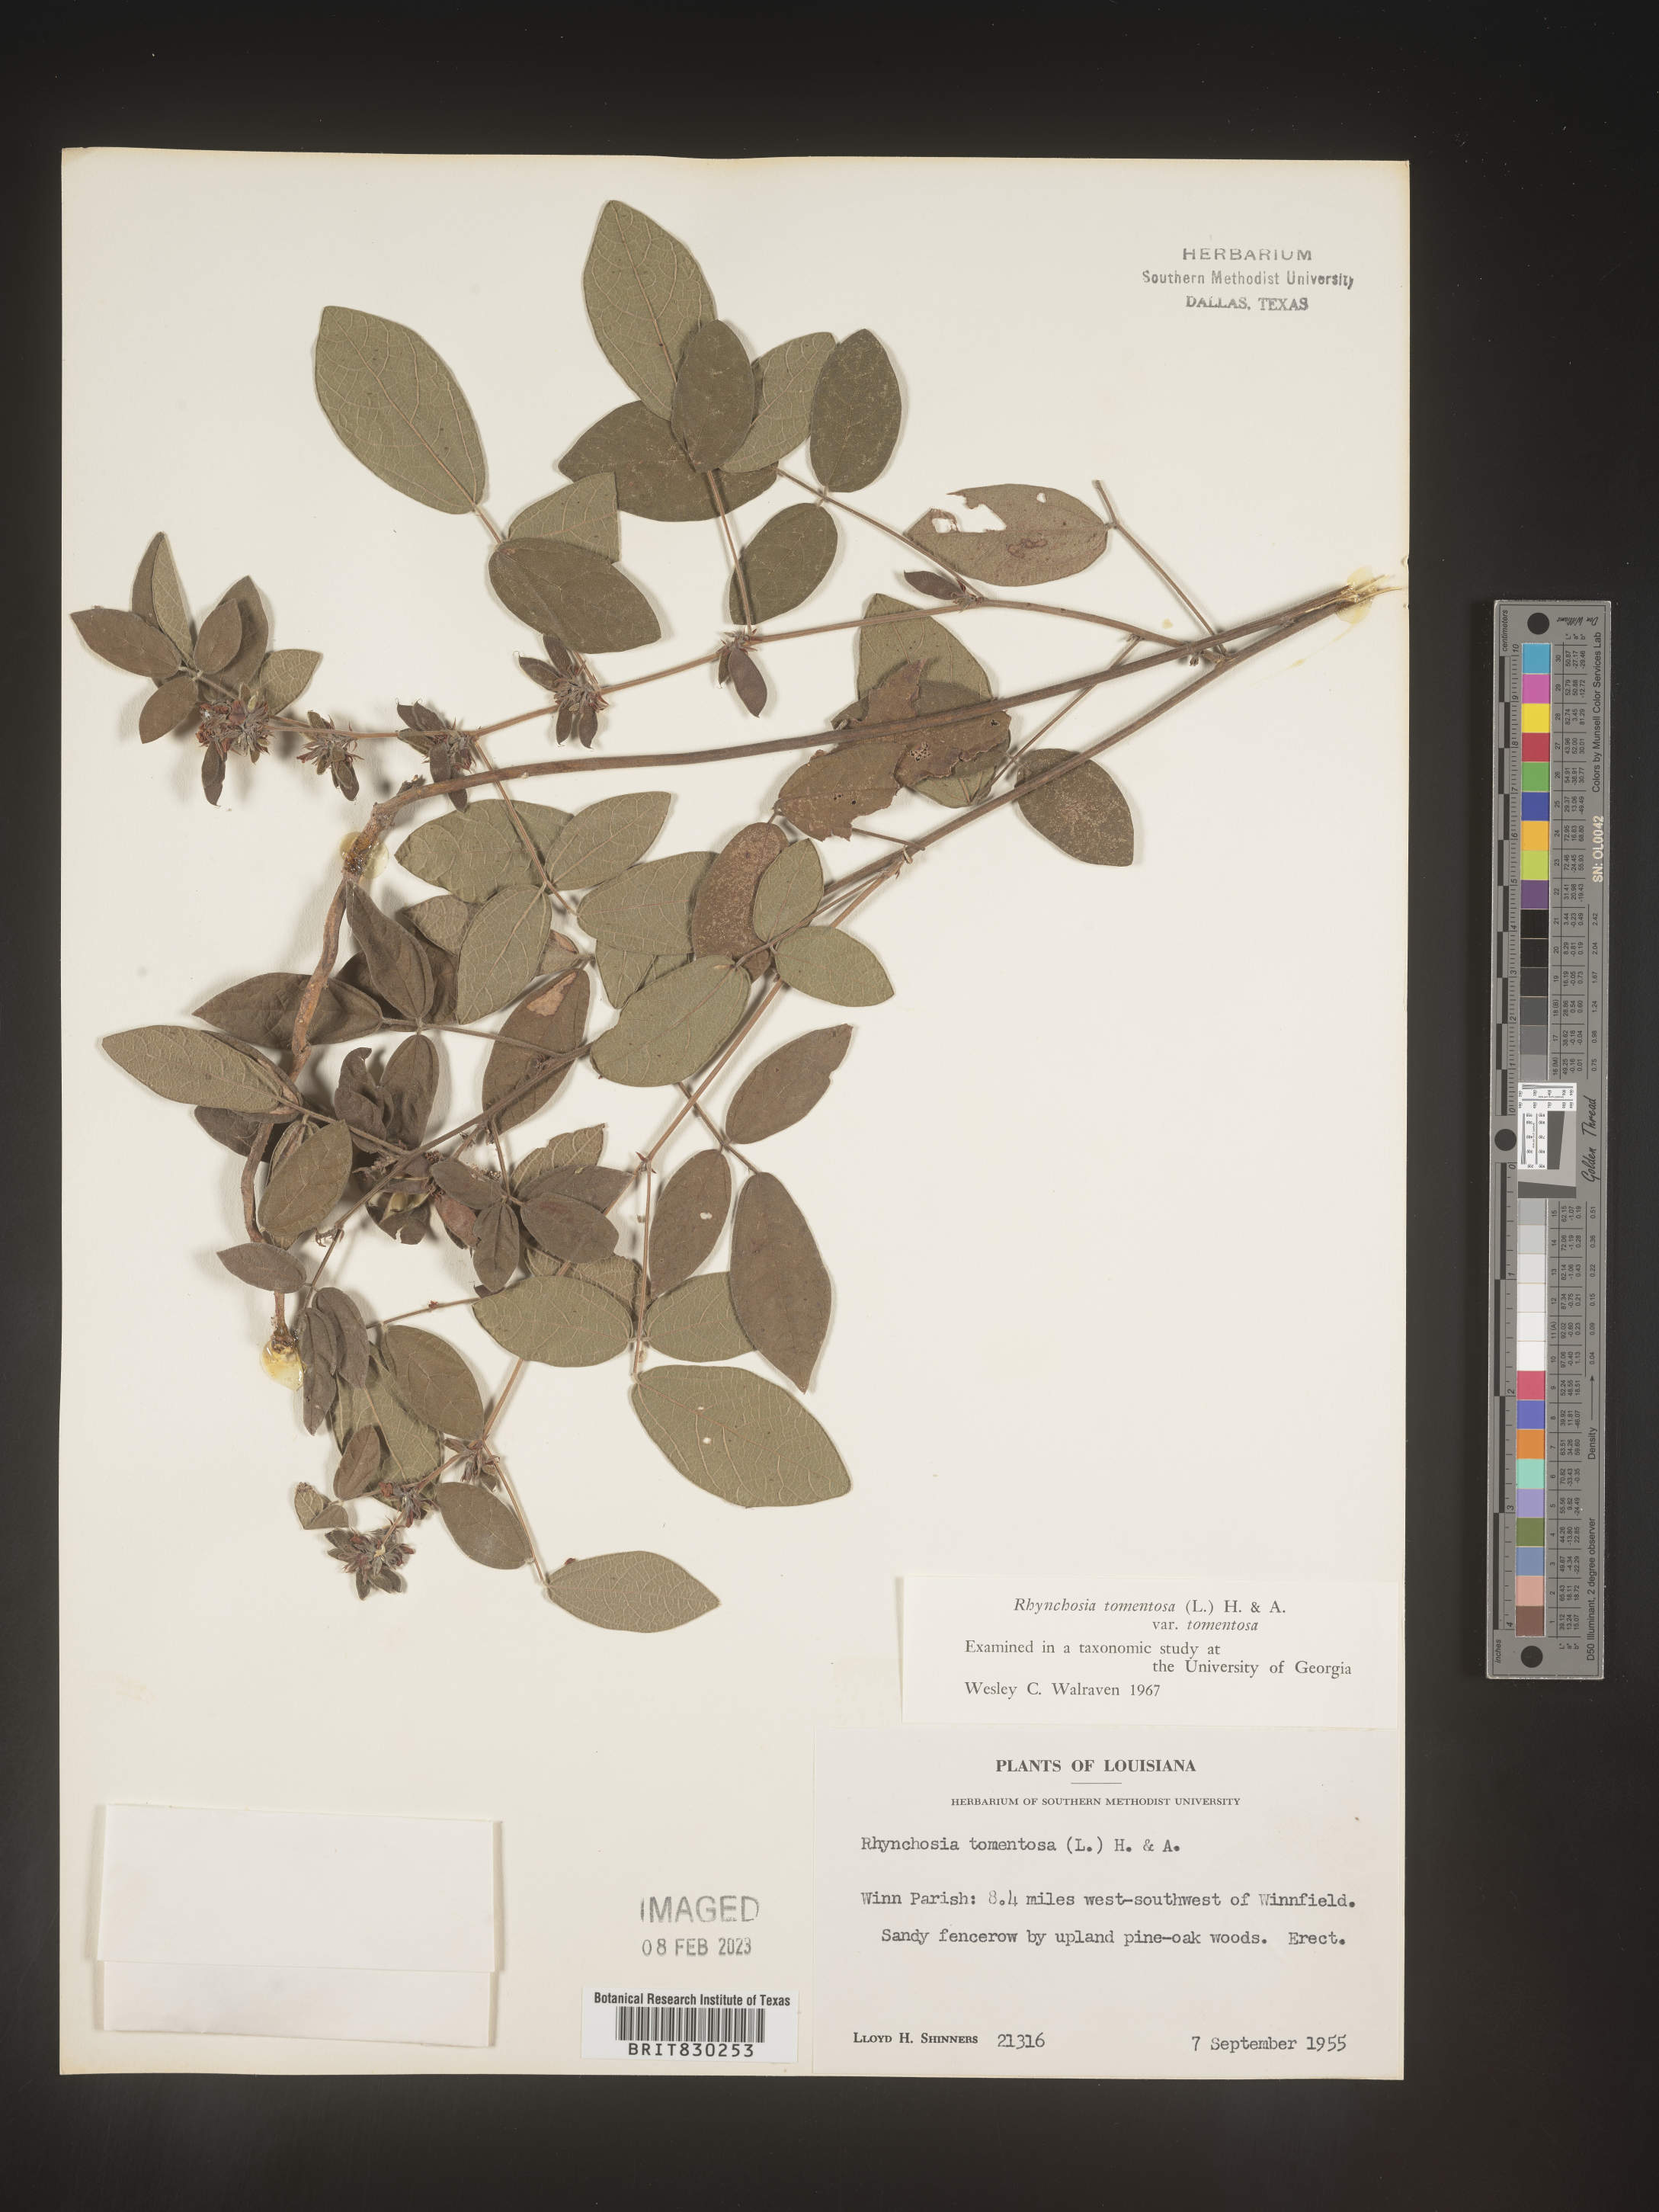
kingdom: Plantae
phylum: Tracheophyta
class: Magnoliopsida
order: Fabales
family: Fabaceae
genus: Rhynchosia
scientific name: Rhynchosia rothii
